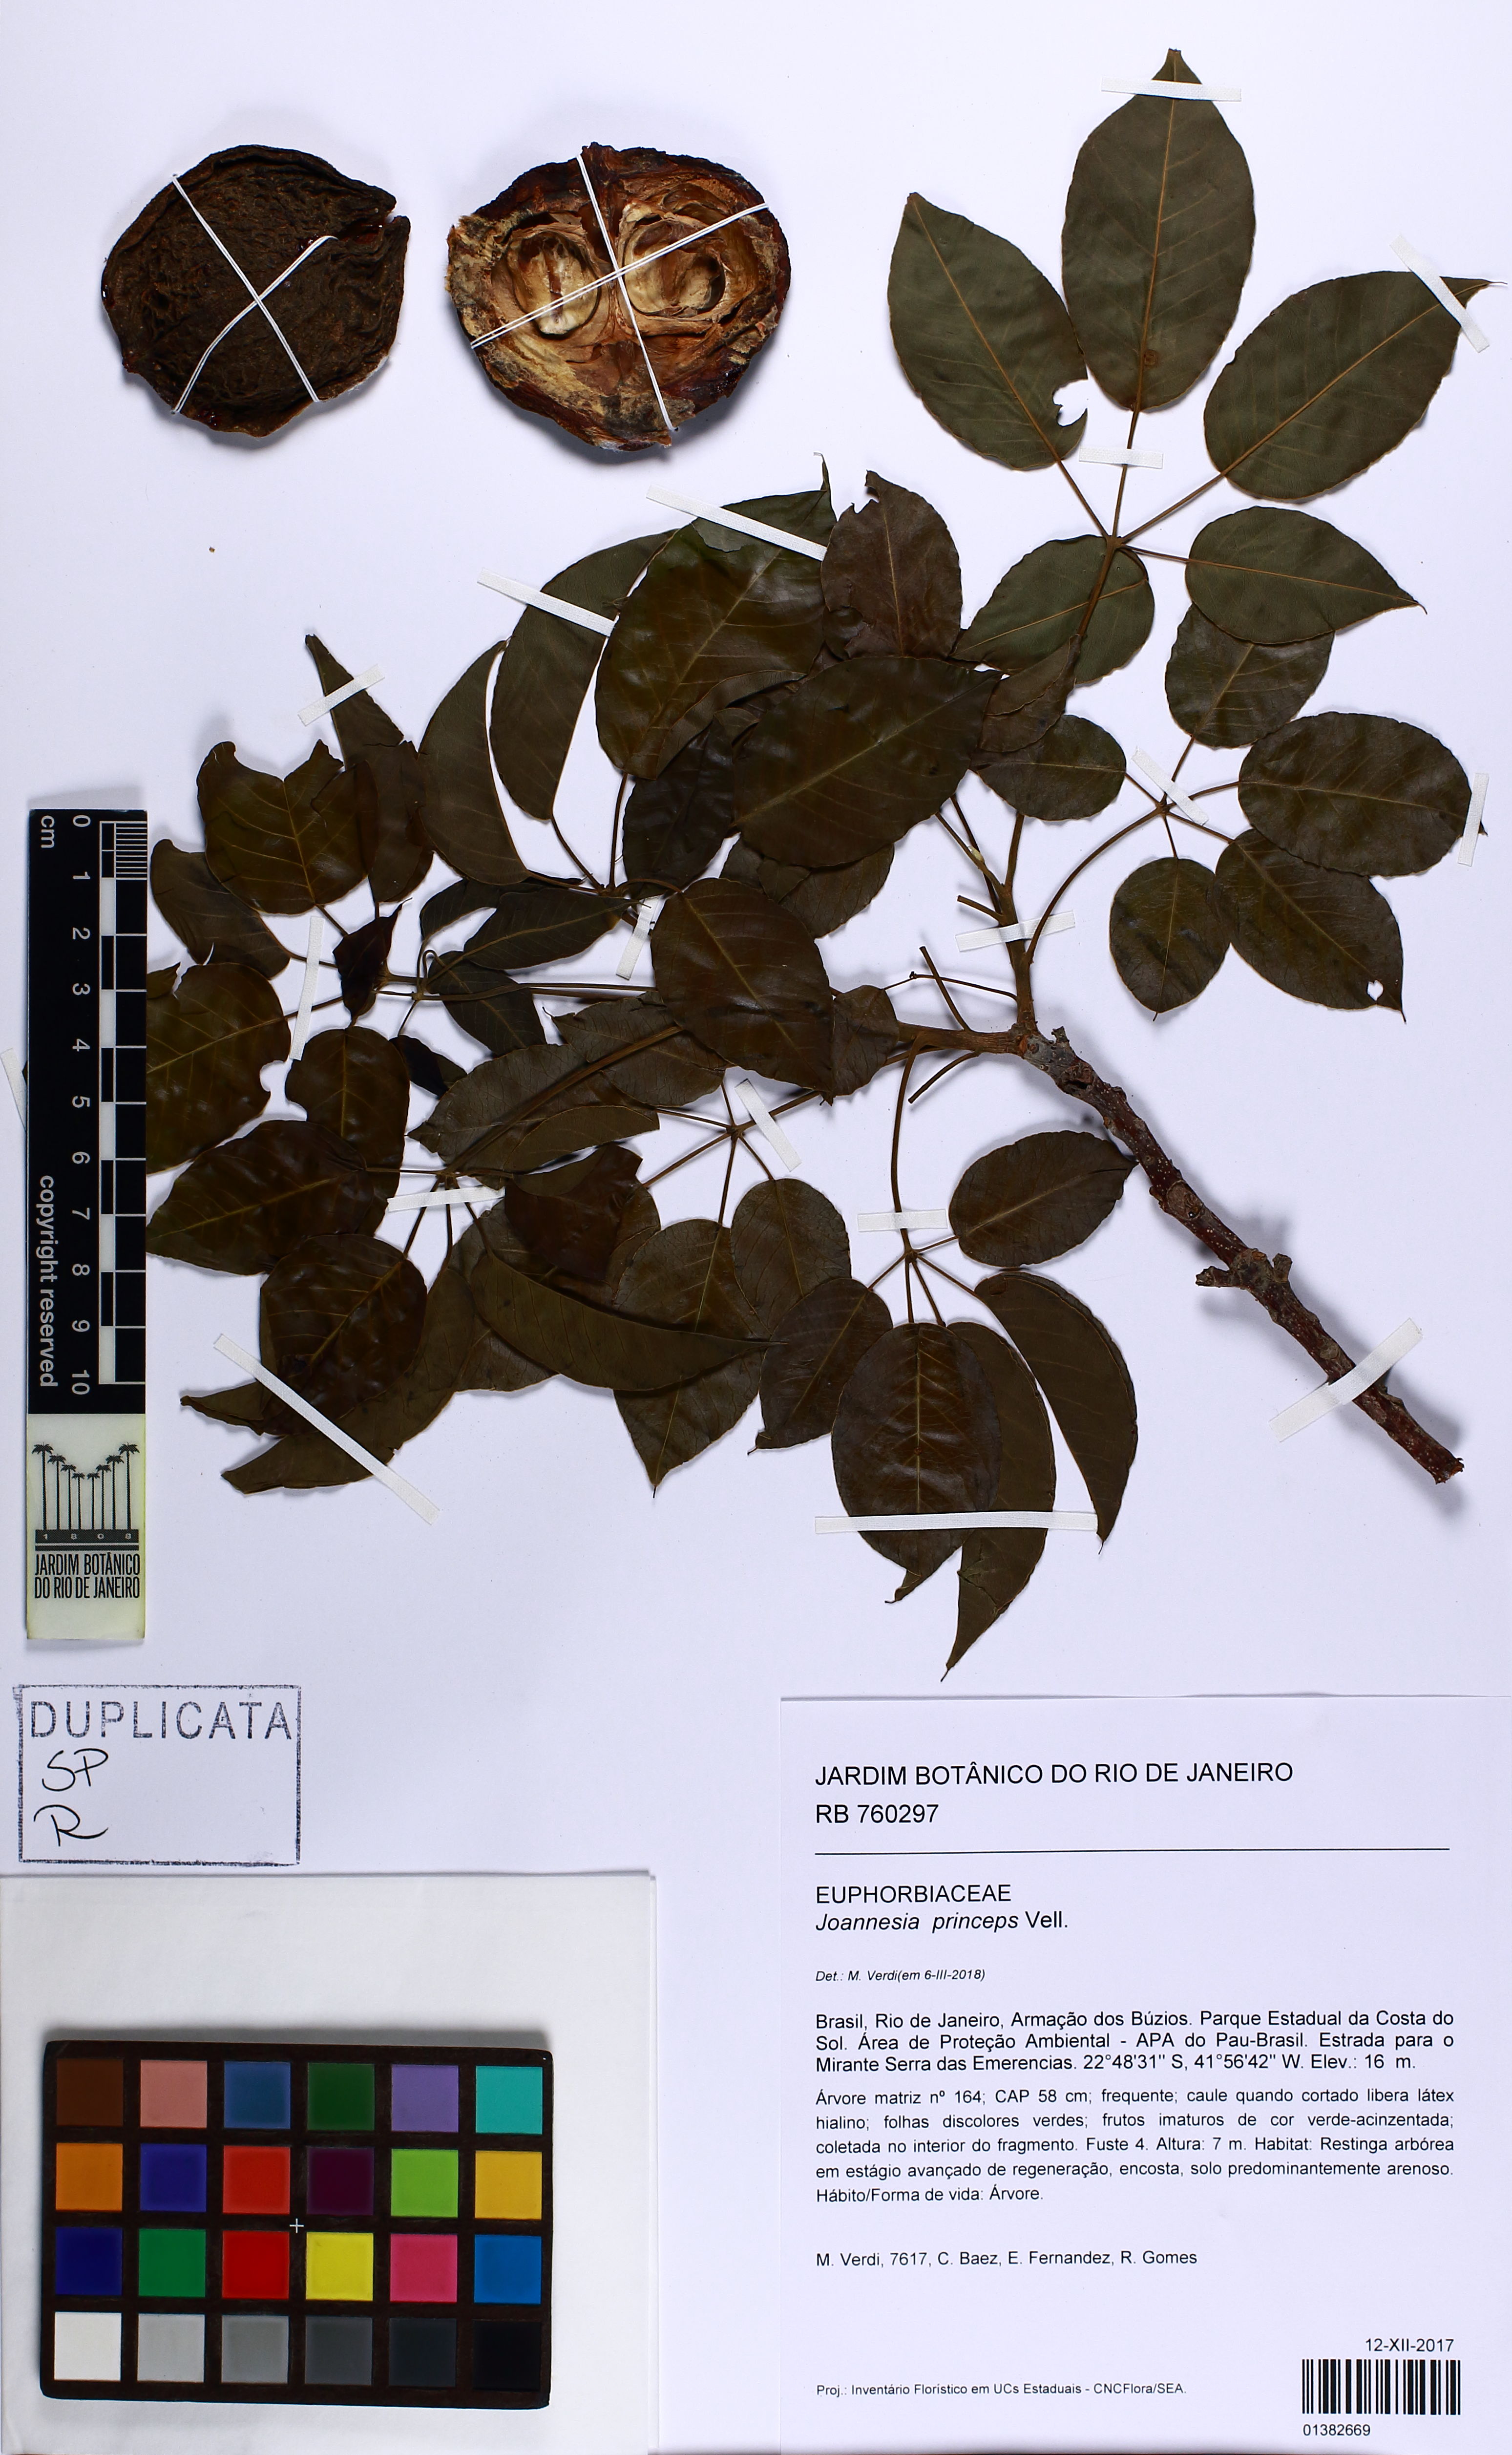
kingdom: Plantae
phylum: Tracheophyta
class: Magnoliopsida
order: Malpighiales
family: Euphorbiaceae
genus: Joannesia
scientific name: Joannesia princeps
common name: Arara nut-tree
